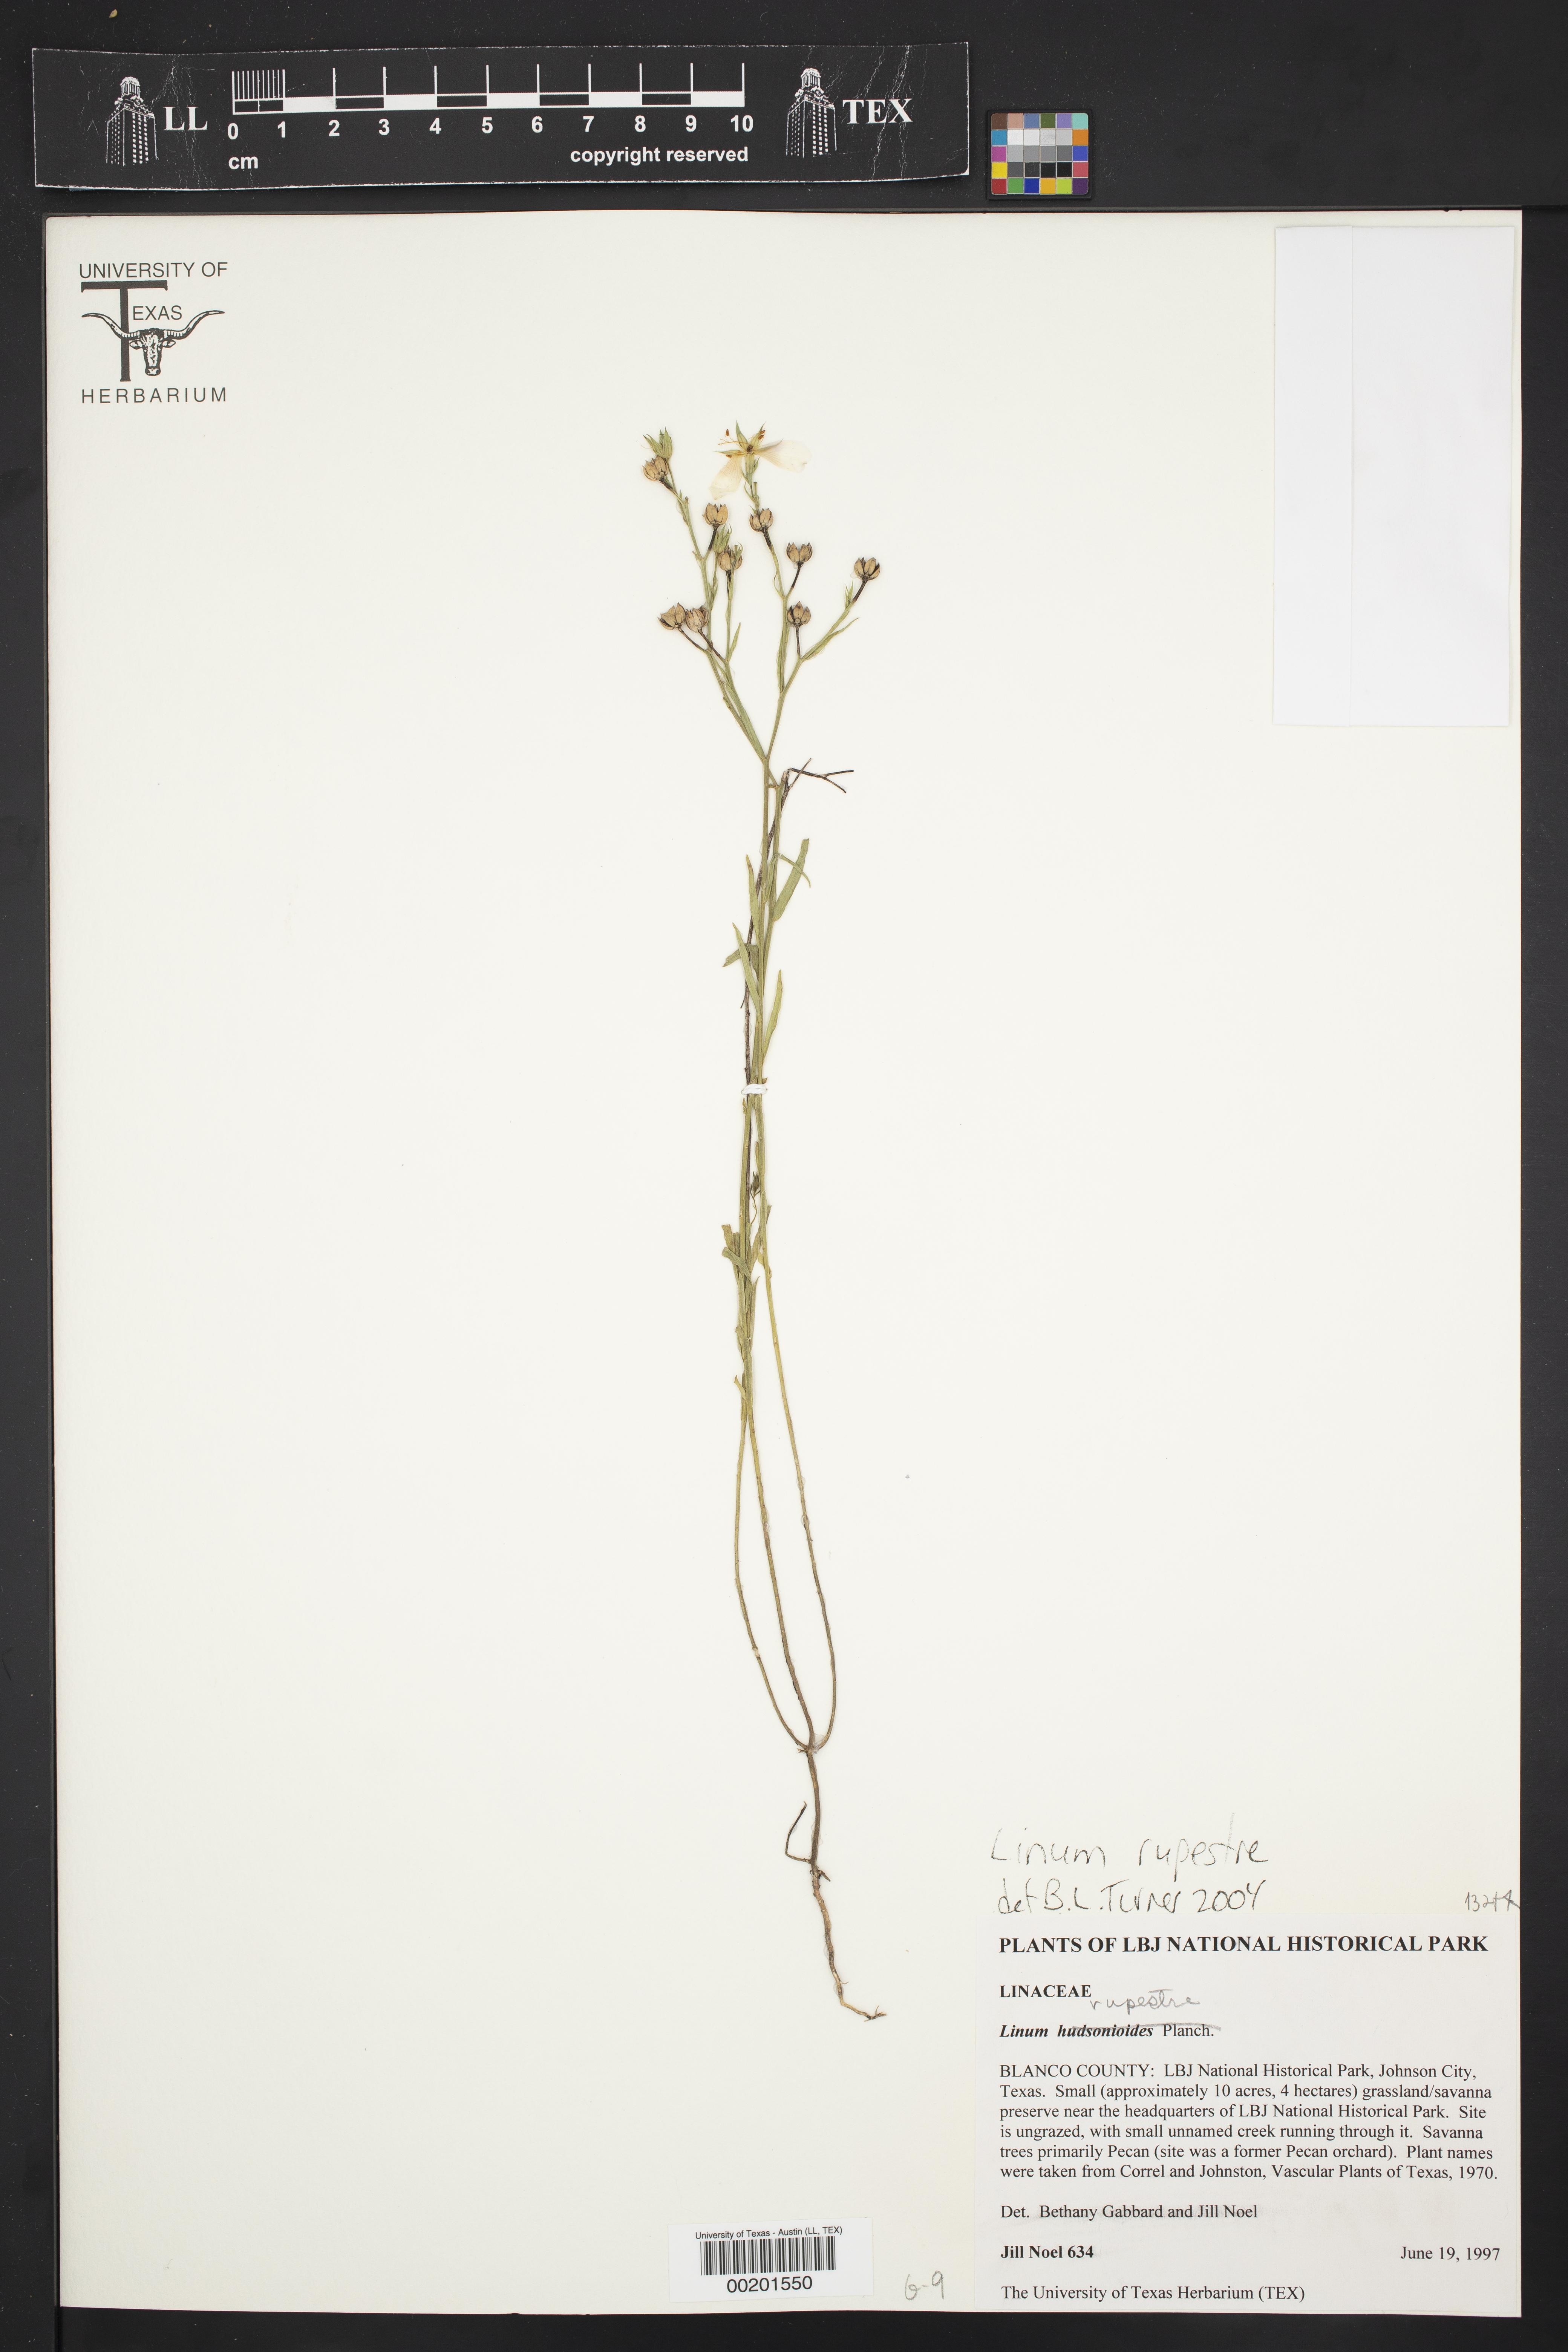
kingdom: Plantae
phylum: Tracheophyta
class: Magnoliopsida
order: Malpighiales
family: Linaceae
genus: Linum
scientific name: Linum rupestre
